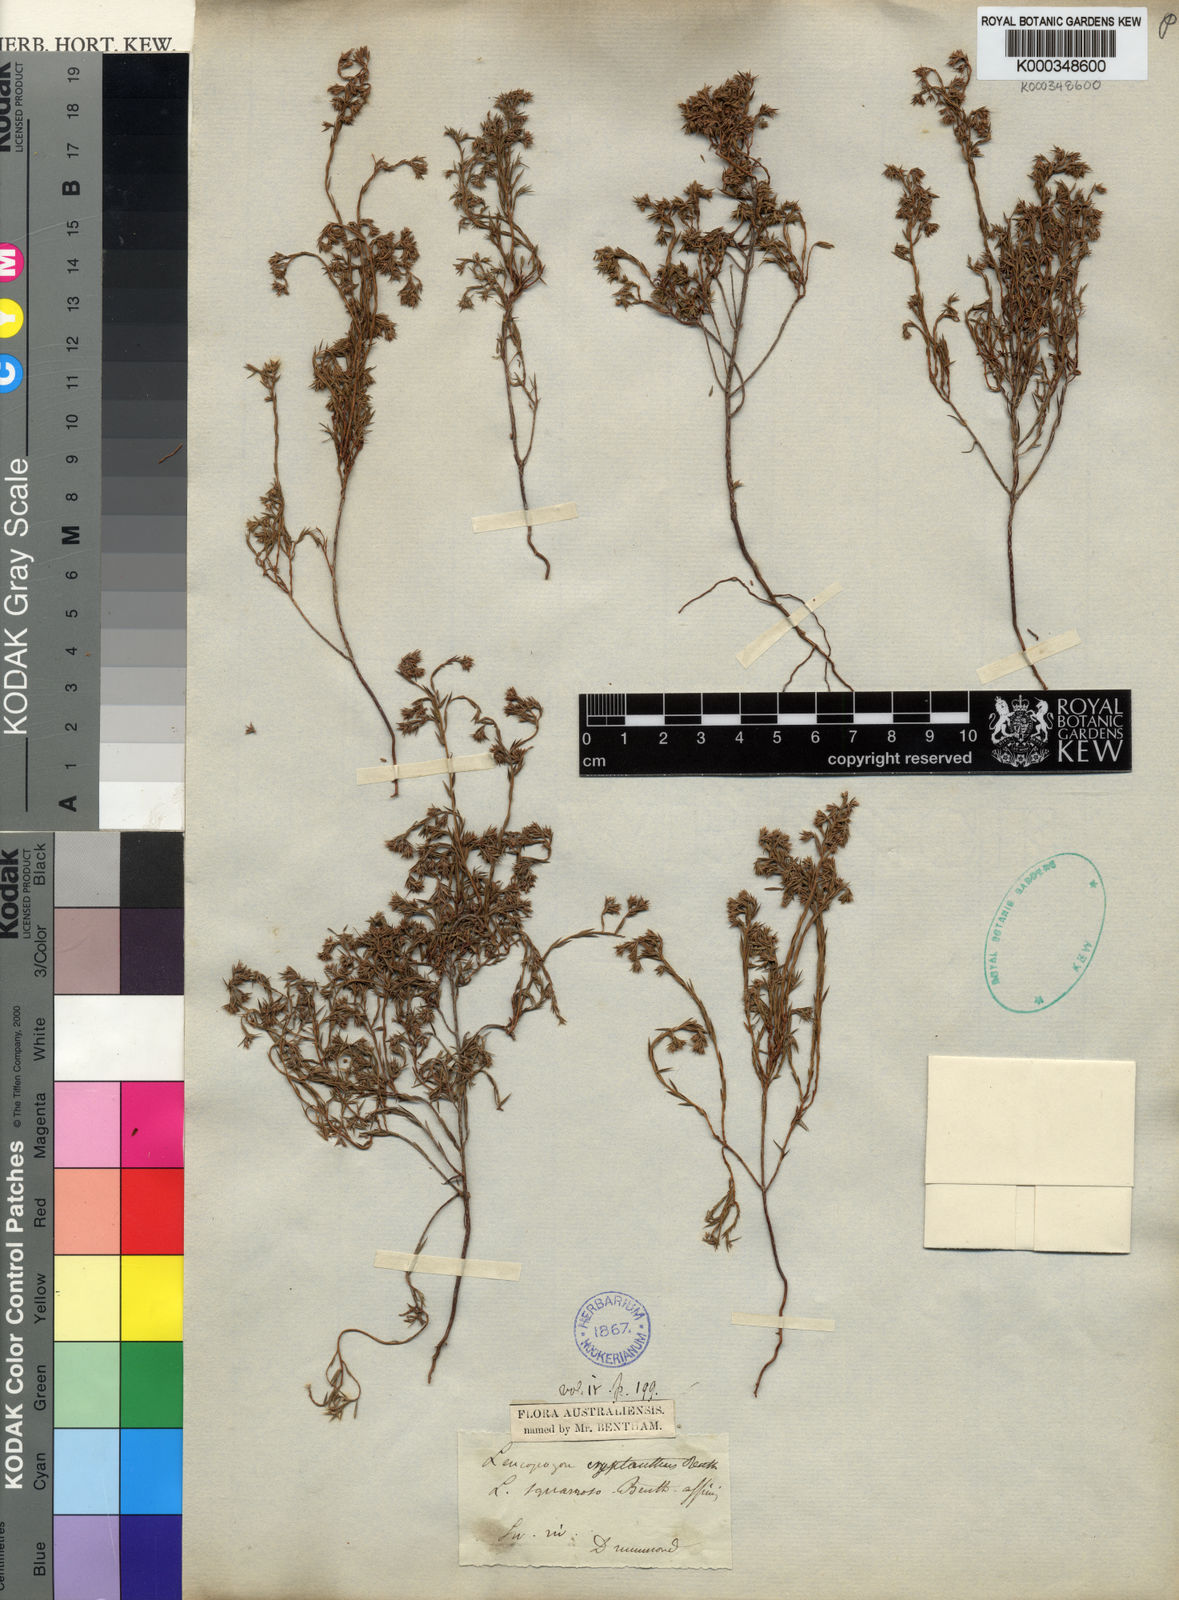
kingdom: Plantae
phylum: Tracheophyta
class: Magnoliopsida
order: Ericales
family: Ericaceae
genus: Leucopogon
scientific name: Leucopogon cryptanthus
